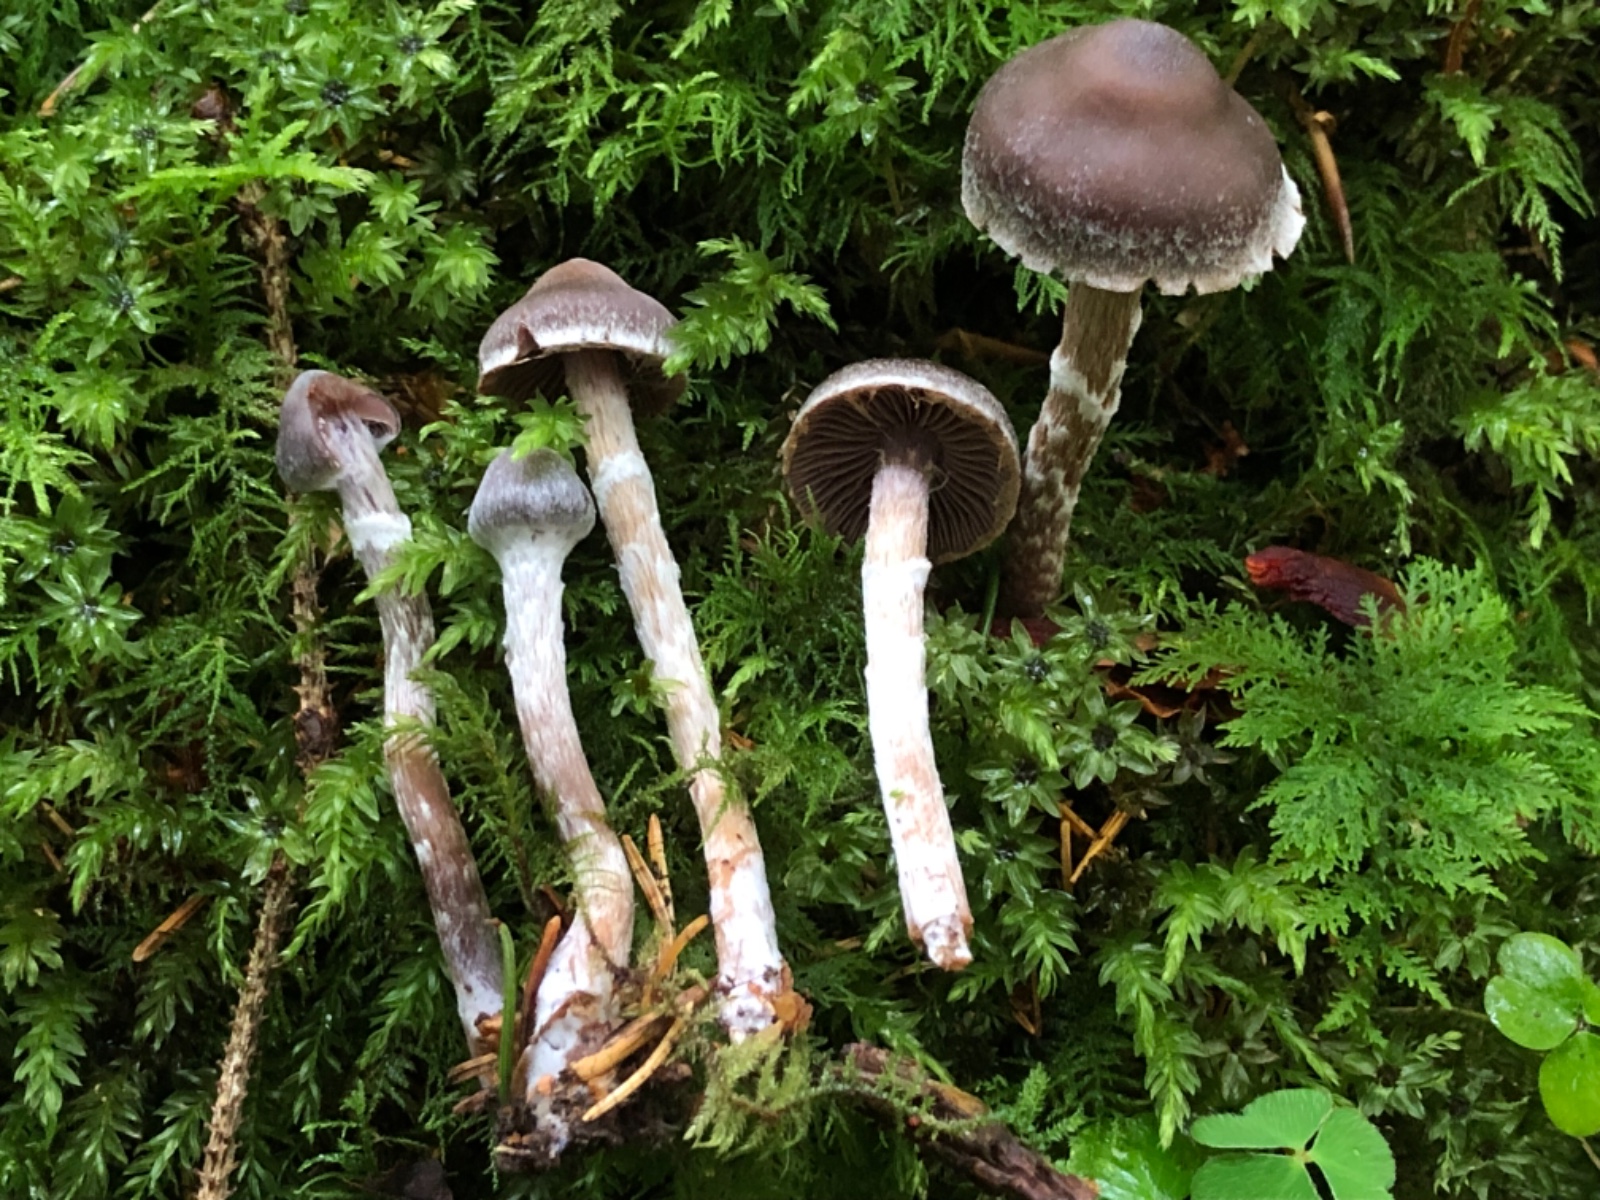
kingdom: Fungi
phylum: Basidiomycota
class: Agaricomycetes
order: Agaricales
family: Cortinariaceae
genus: Cortinarius
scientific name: Cortinarius flabellus
